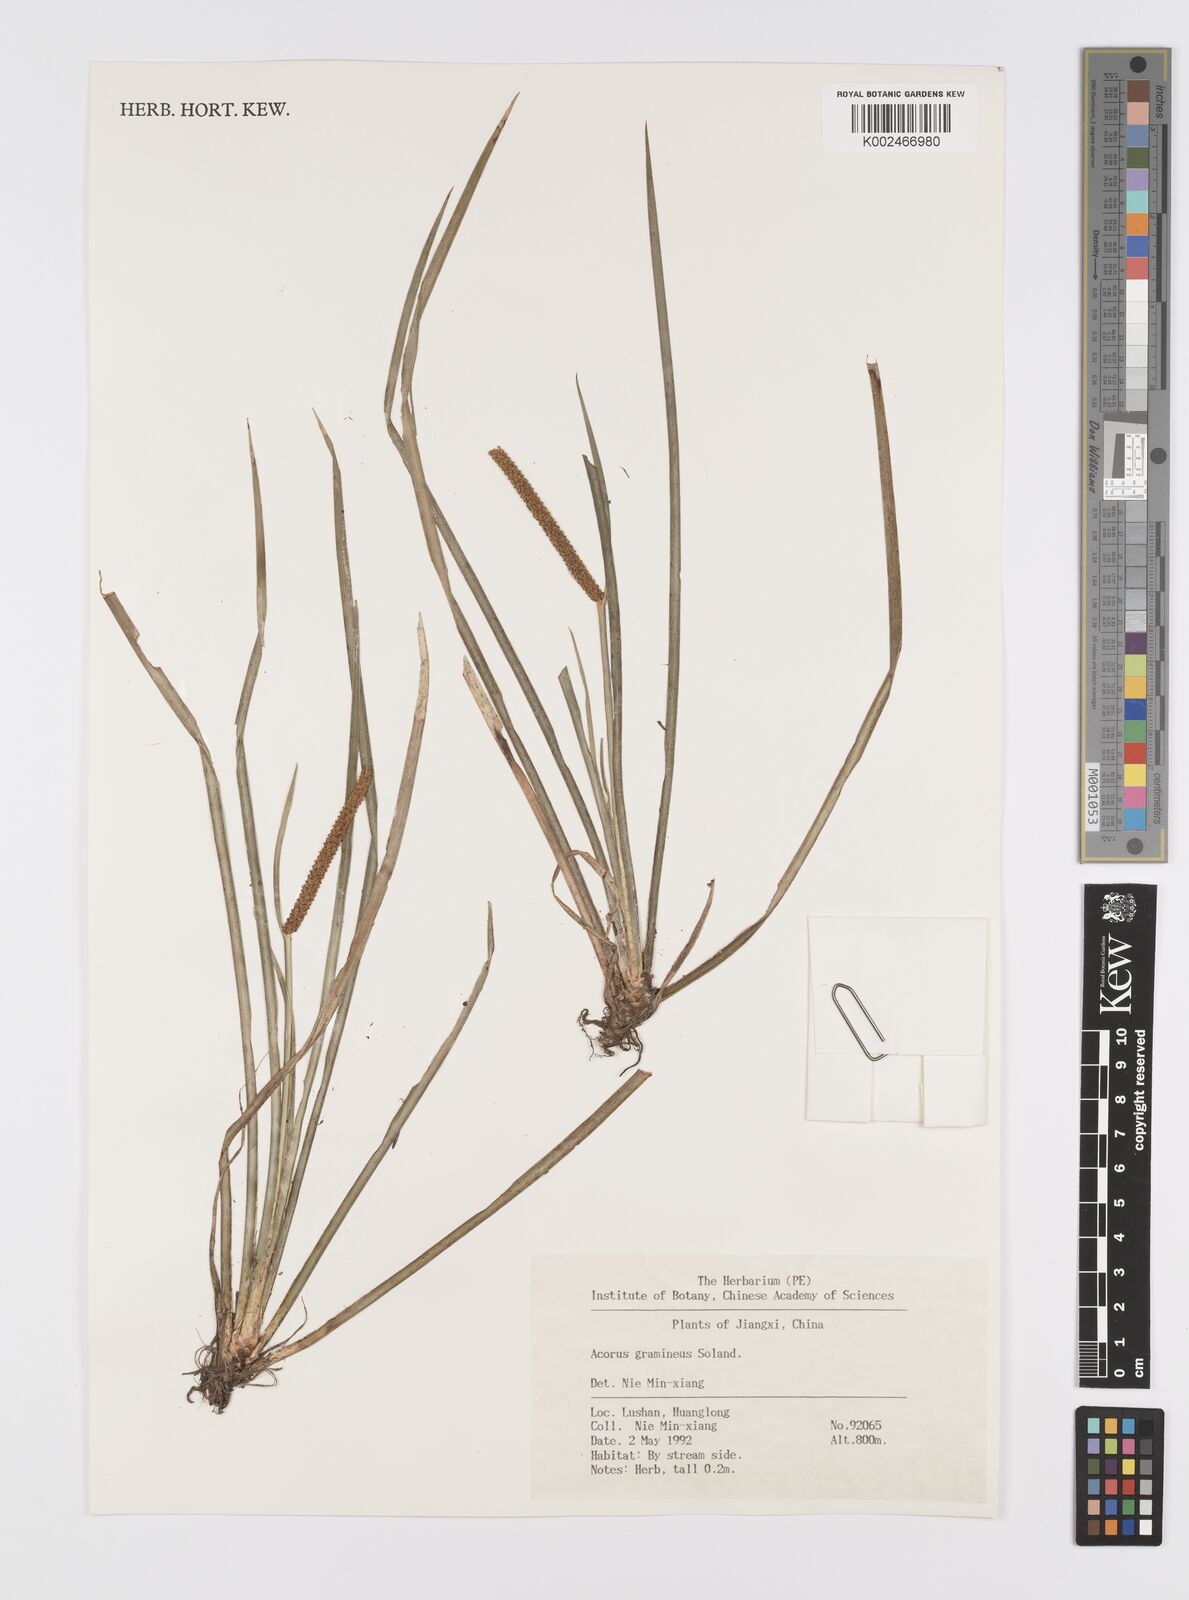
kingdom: Plantae
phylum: Tracheophyta
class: Liliopsida
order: Acorales
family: Acoraceae
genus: Acorus
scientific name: Acorus gramineus
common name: Slender sweet-flag
